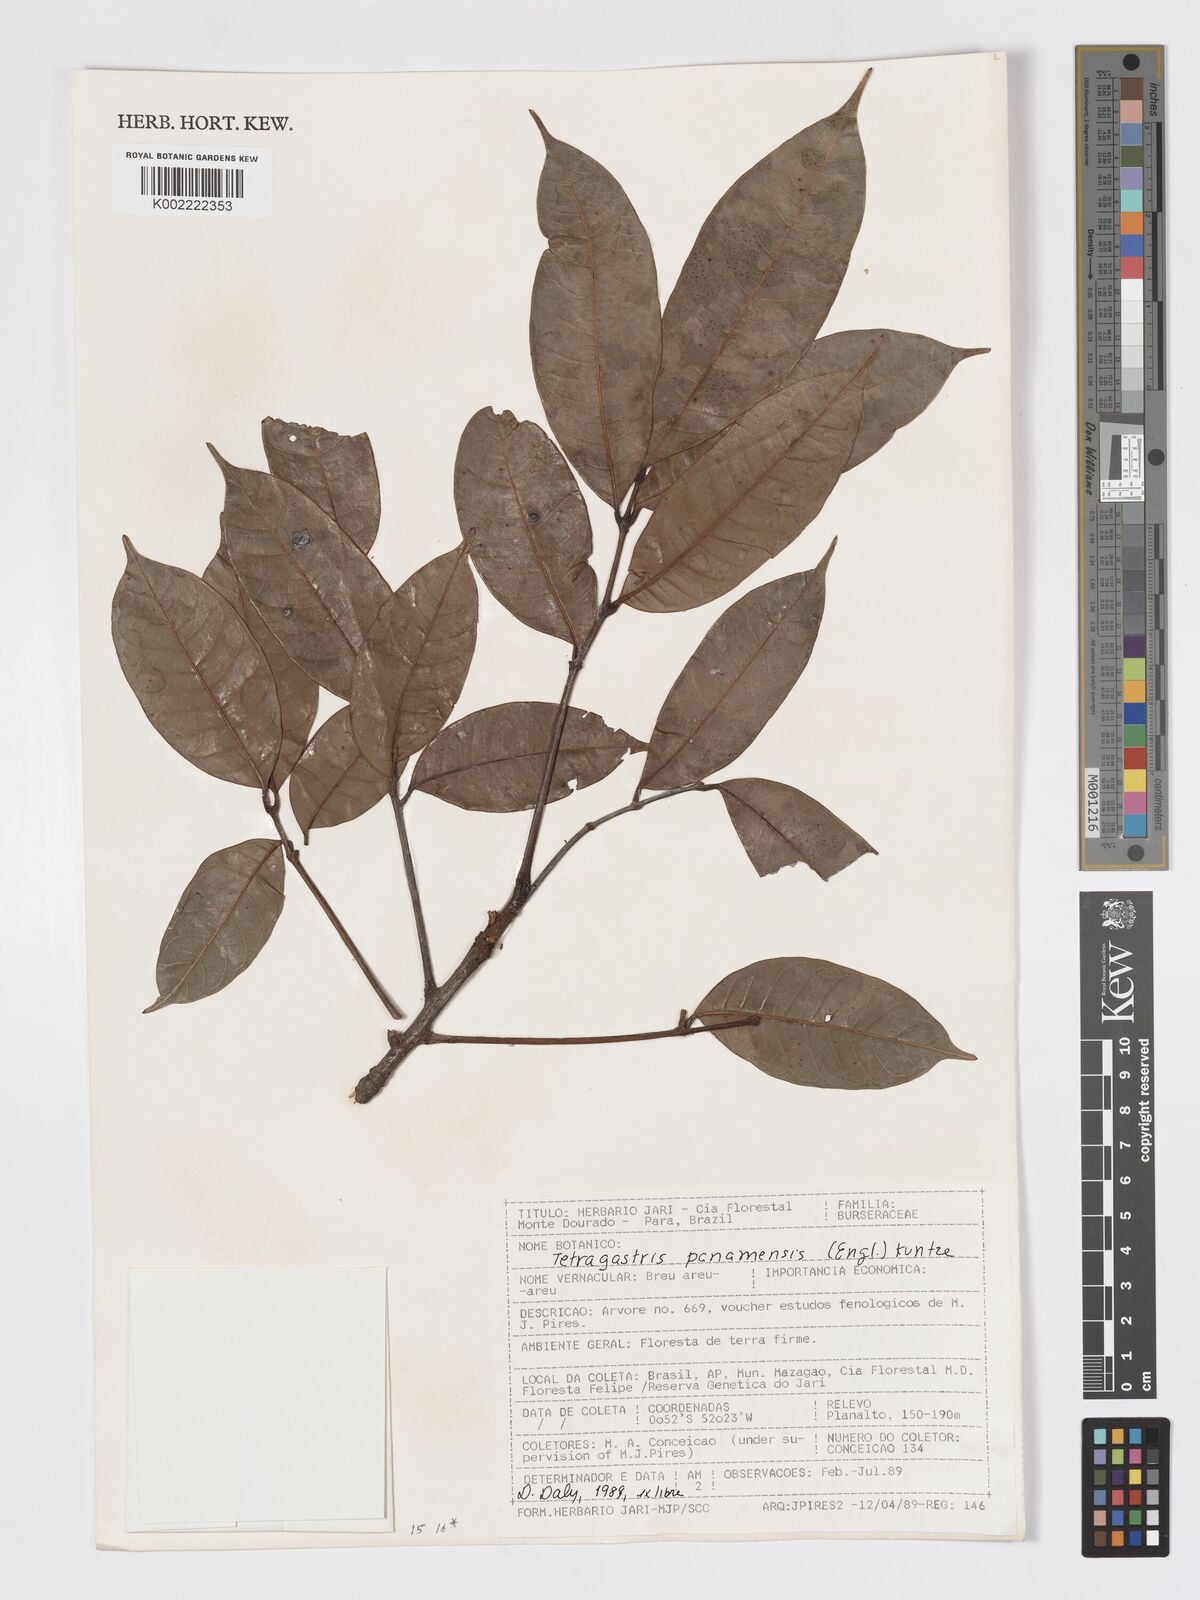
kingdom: Plantae
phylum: Tracheophyta
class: Magnoliopsida
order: Sapindales
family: Burseraceae
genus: Tetragastris
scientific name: Tetragastris panamensis
